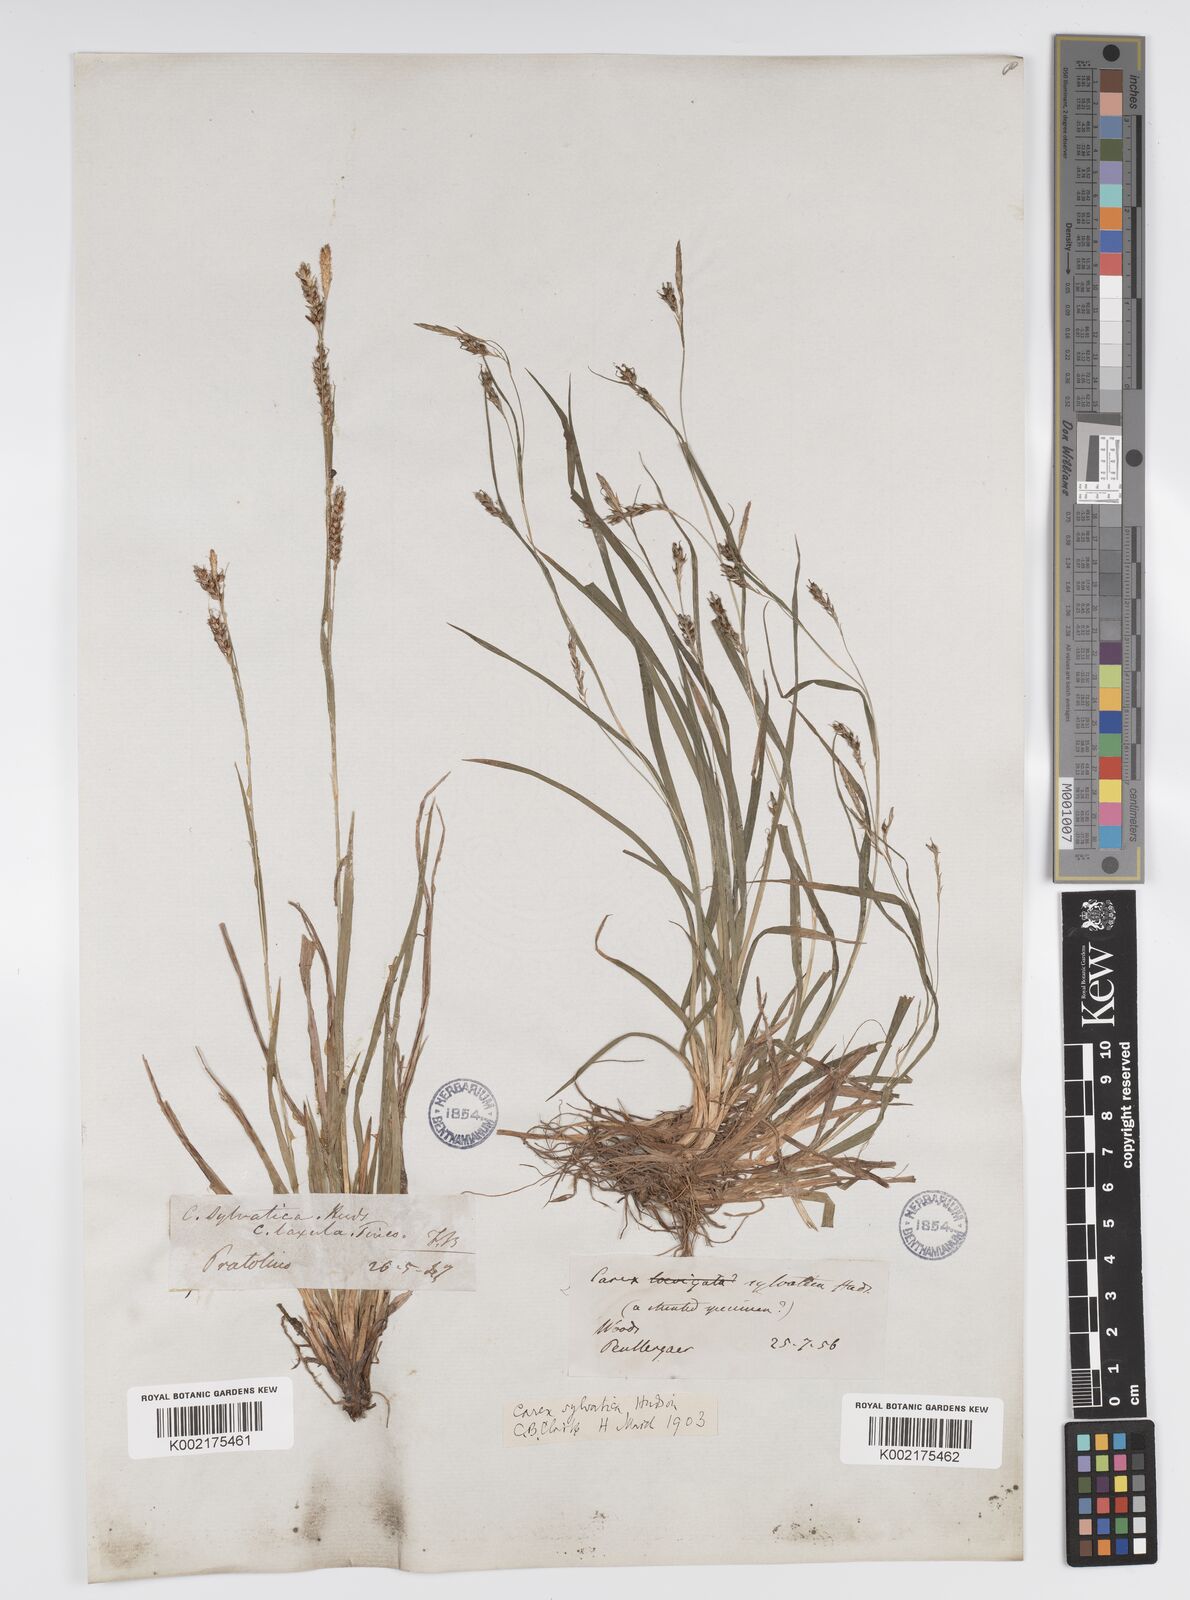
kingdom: Plantae
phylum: Tracheophyta
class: Liliopsida
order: Poales
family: Cyperaceae
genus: Carex
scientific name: Carex sylvatica
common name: Wood-sedge
